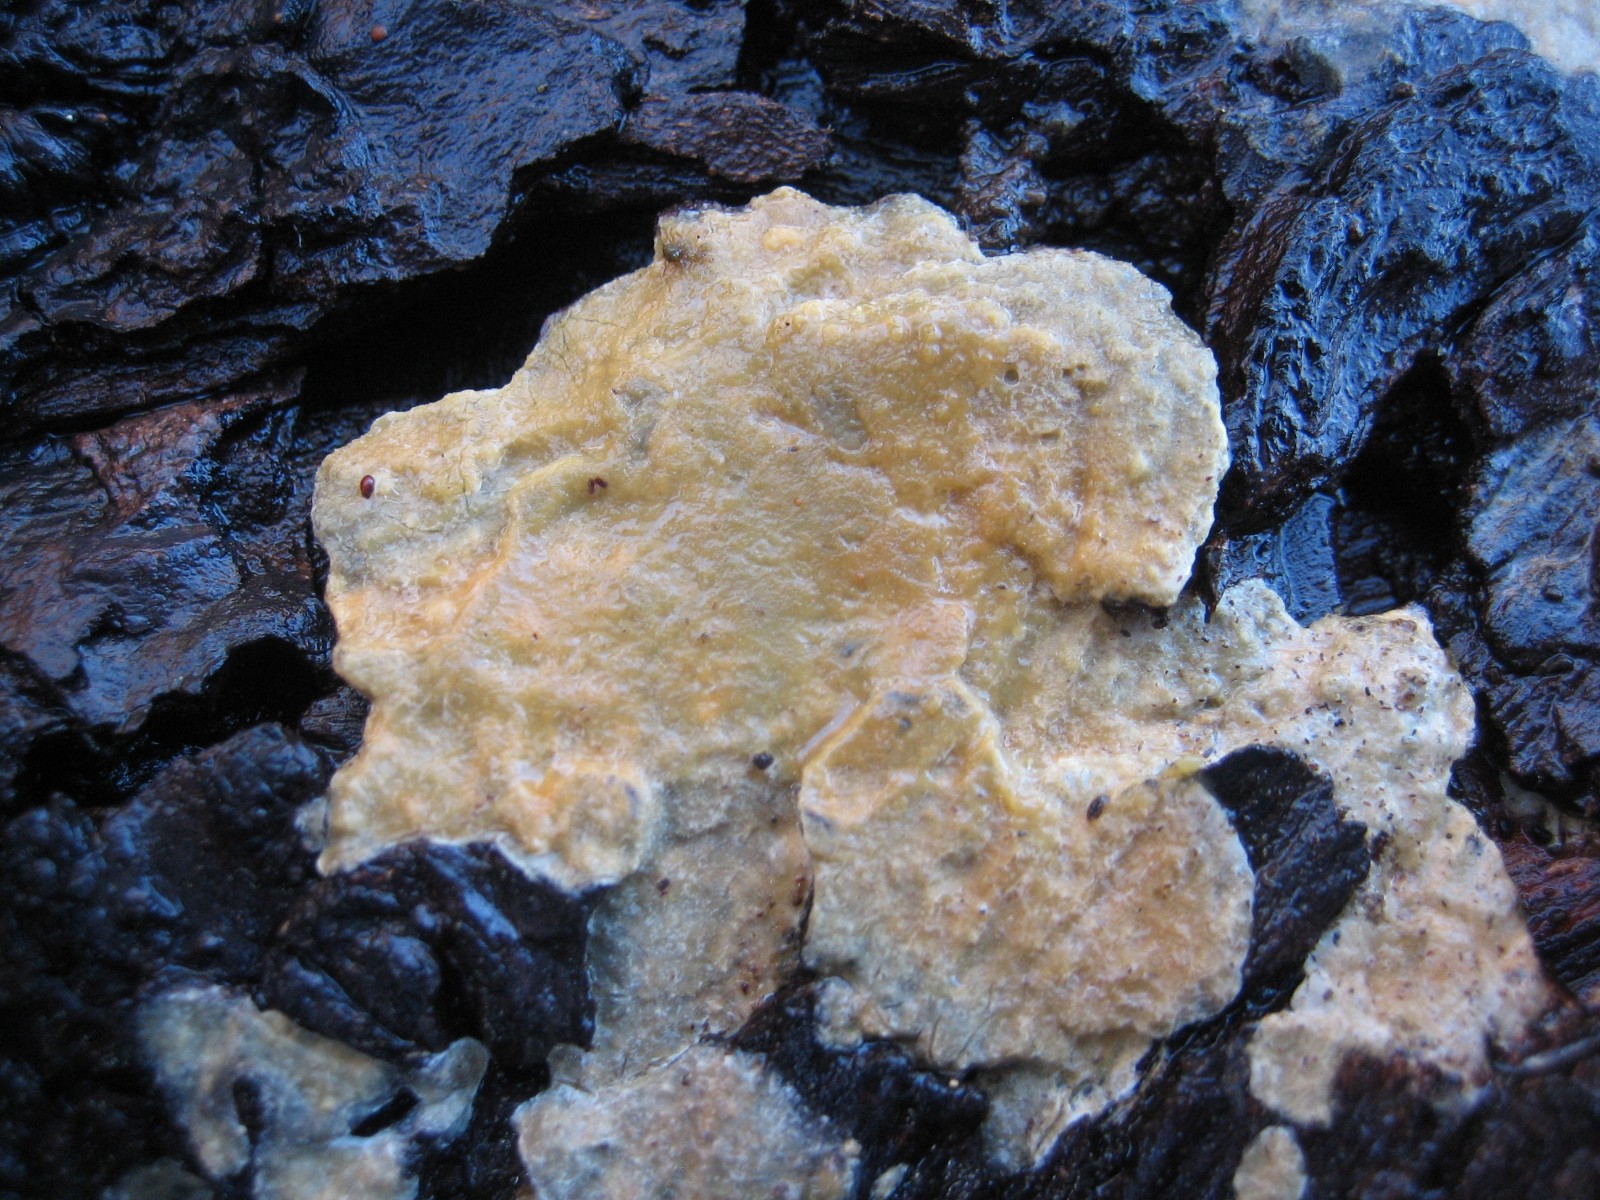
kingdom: Fungi
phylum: Basidiomycota
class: Agaricomycetes
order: Corticiales
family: Corticiaceae
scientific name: Corticiaceae
